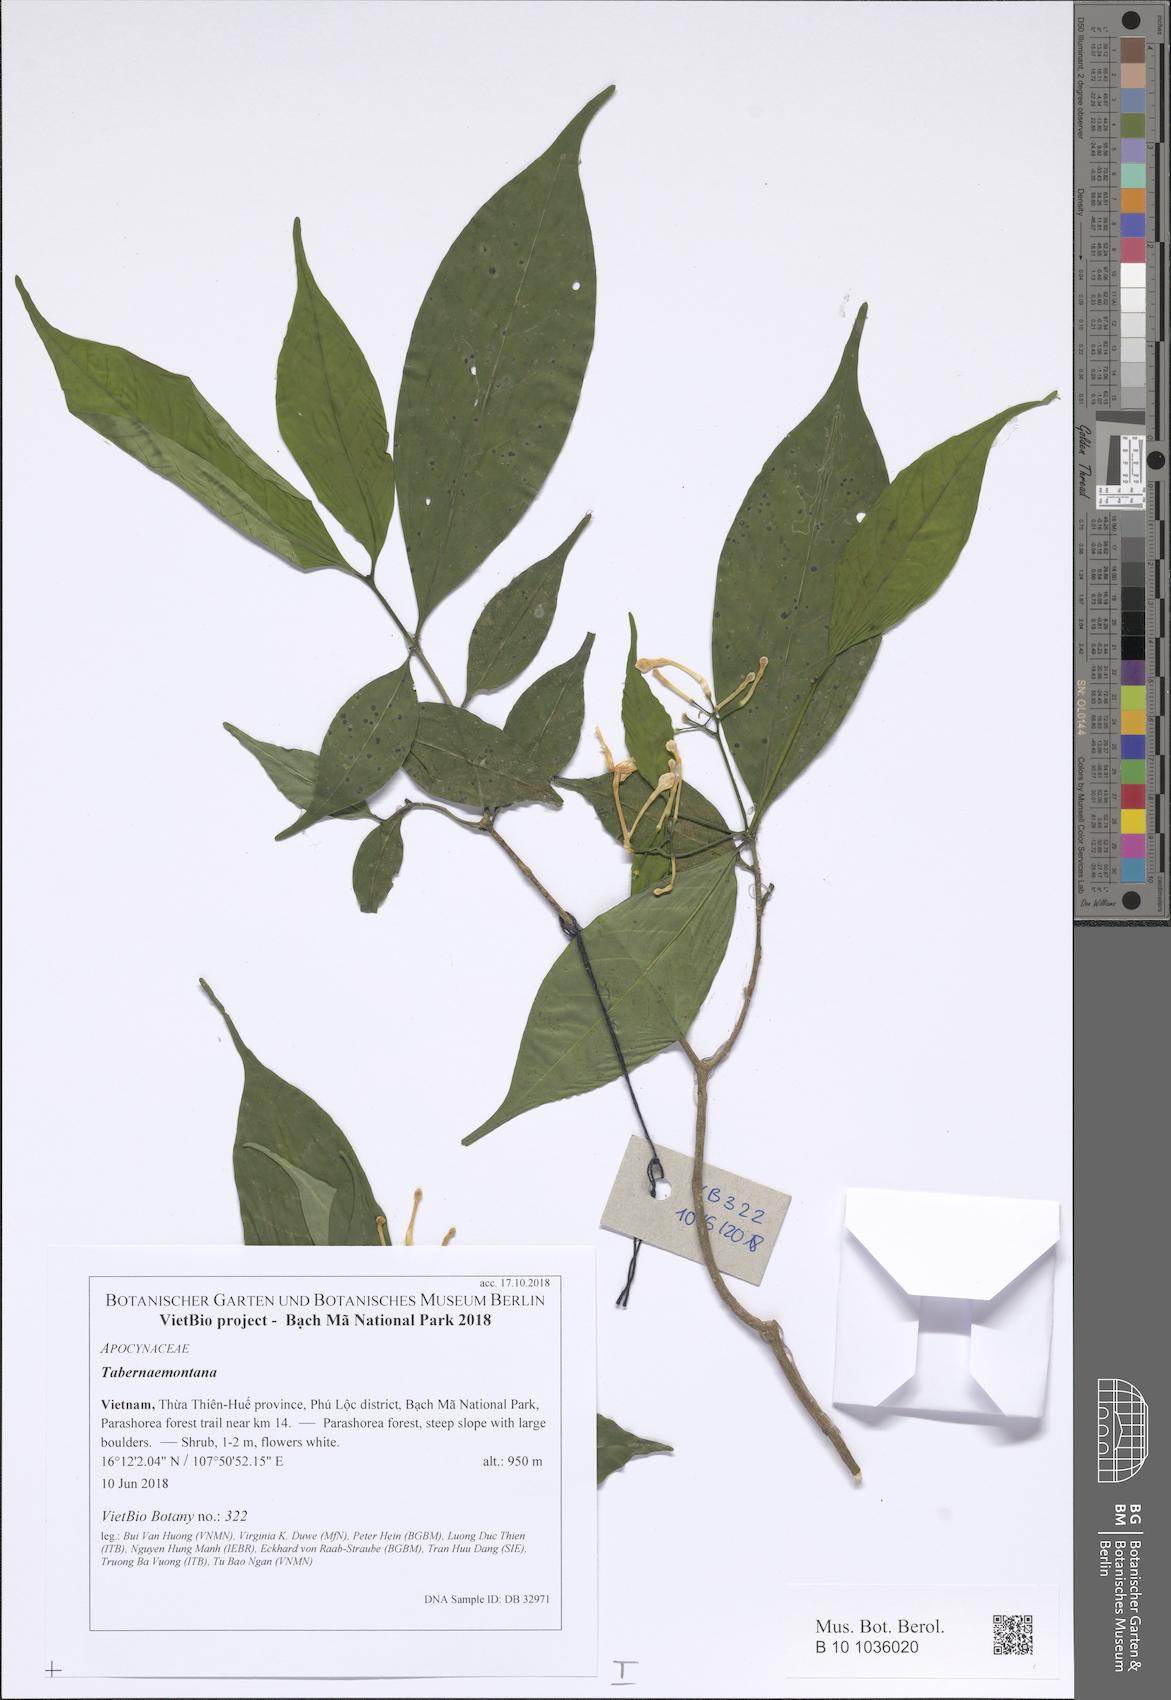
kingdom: Plantae
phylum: Tracheophyta
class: Magnoliopsida
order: Gentianales
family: Apocynaceae
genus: Tabernaemontana
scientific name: Tabernaemontana bovina
